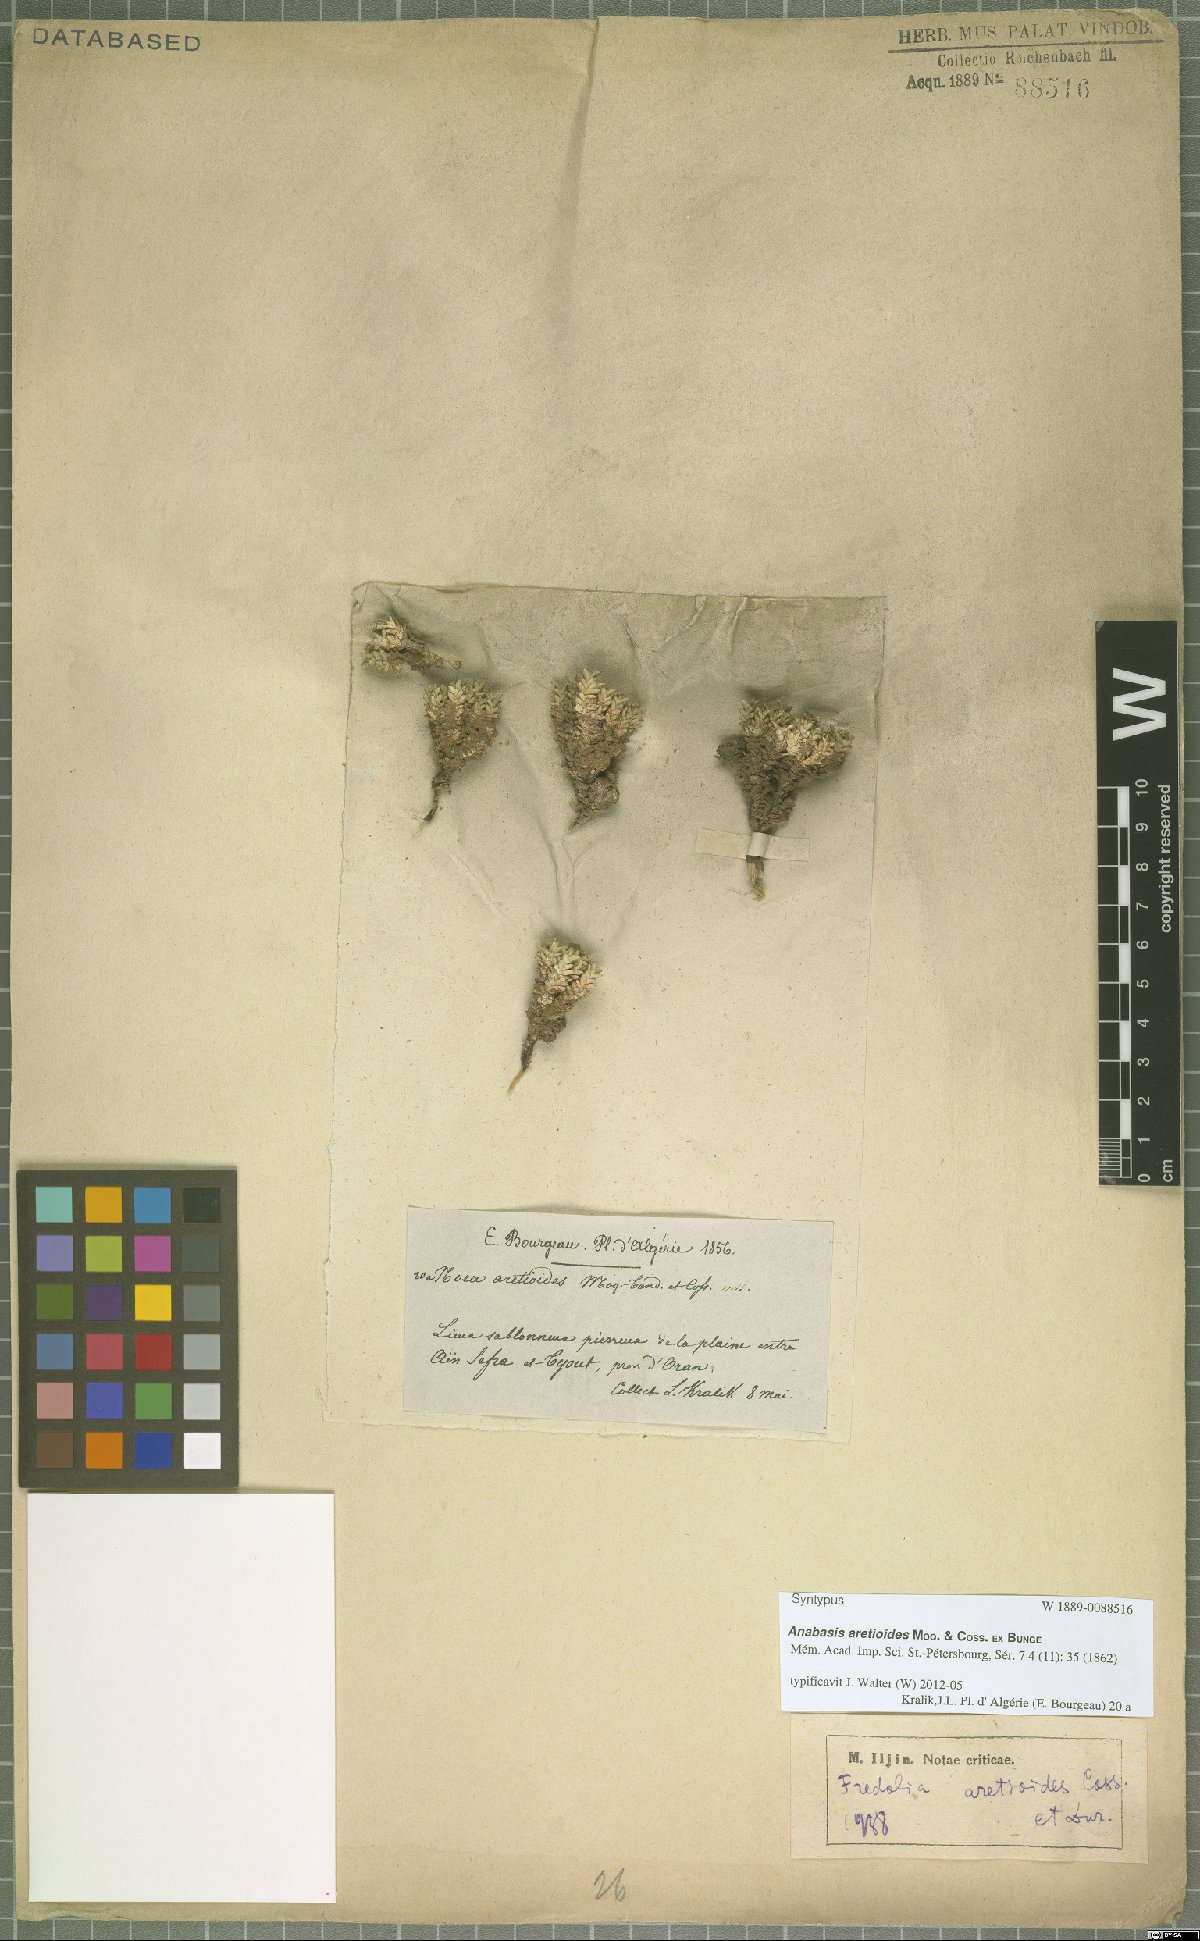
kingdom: Plantae
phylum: Tracheophyta
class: Magnoliopsida
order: Caryophyllales
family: Amaranthaceae
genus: Anabasis
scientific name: Anabasis aretioides
